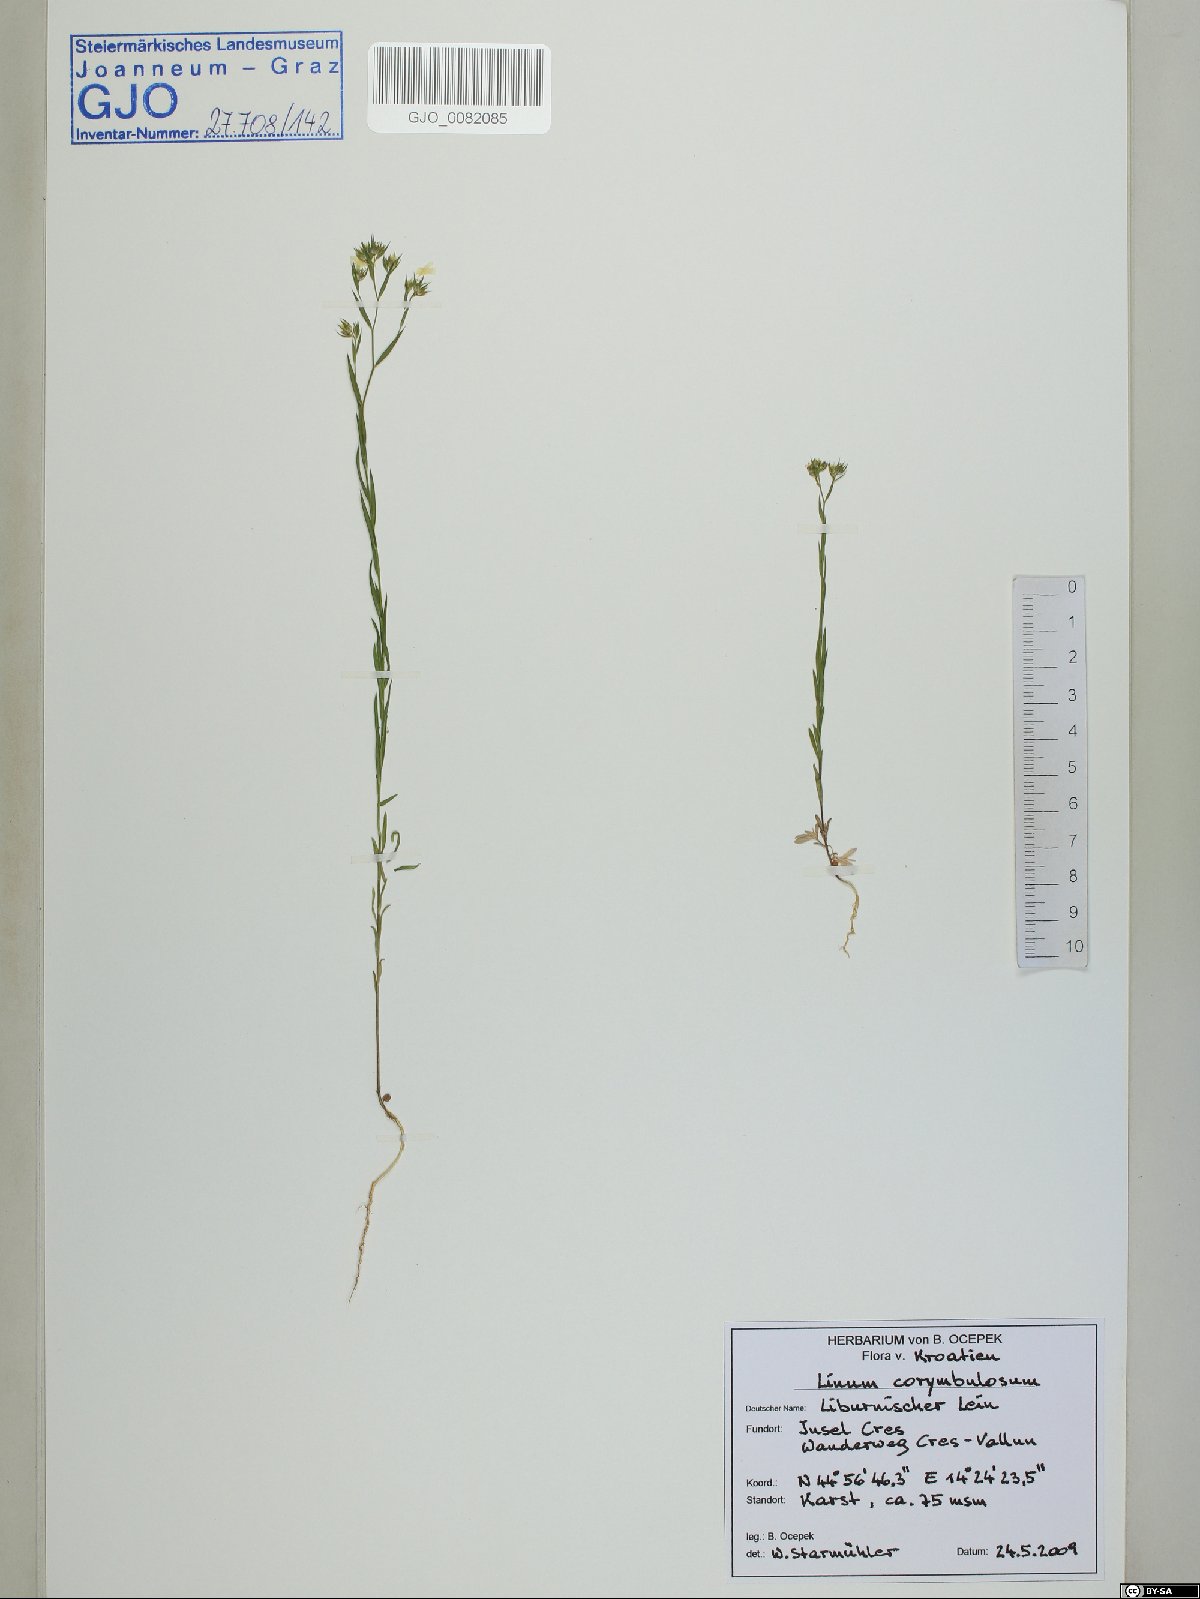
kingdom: Plantae
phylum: Tracheophyta
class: Magnoliopsida
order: Malpighiales
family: Linaceae
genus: Linum
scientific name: Linum strictum
